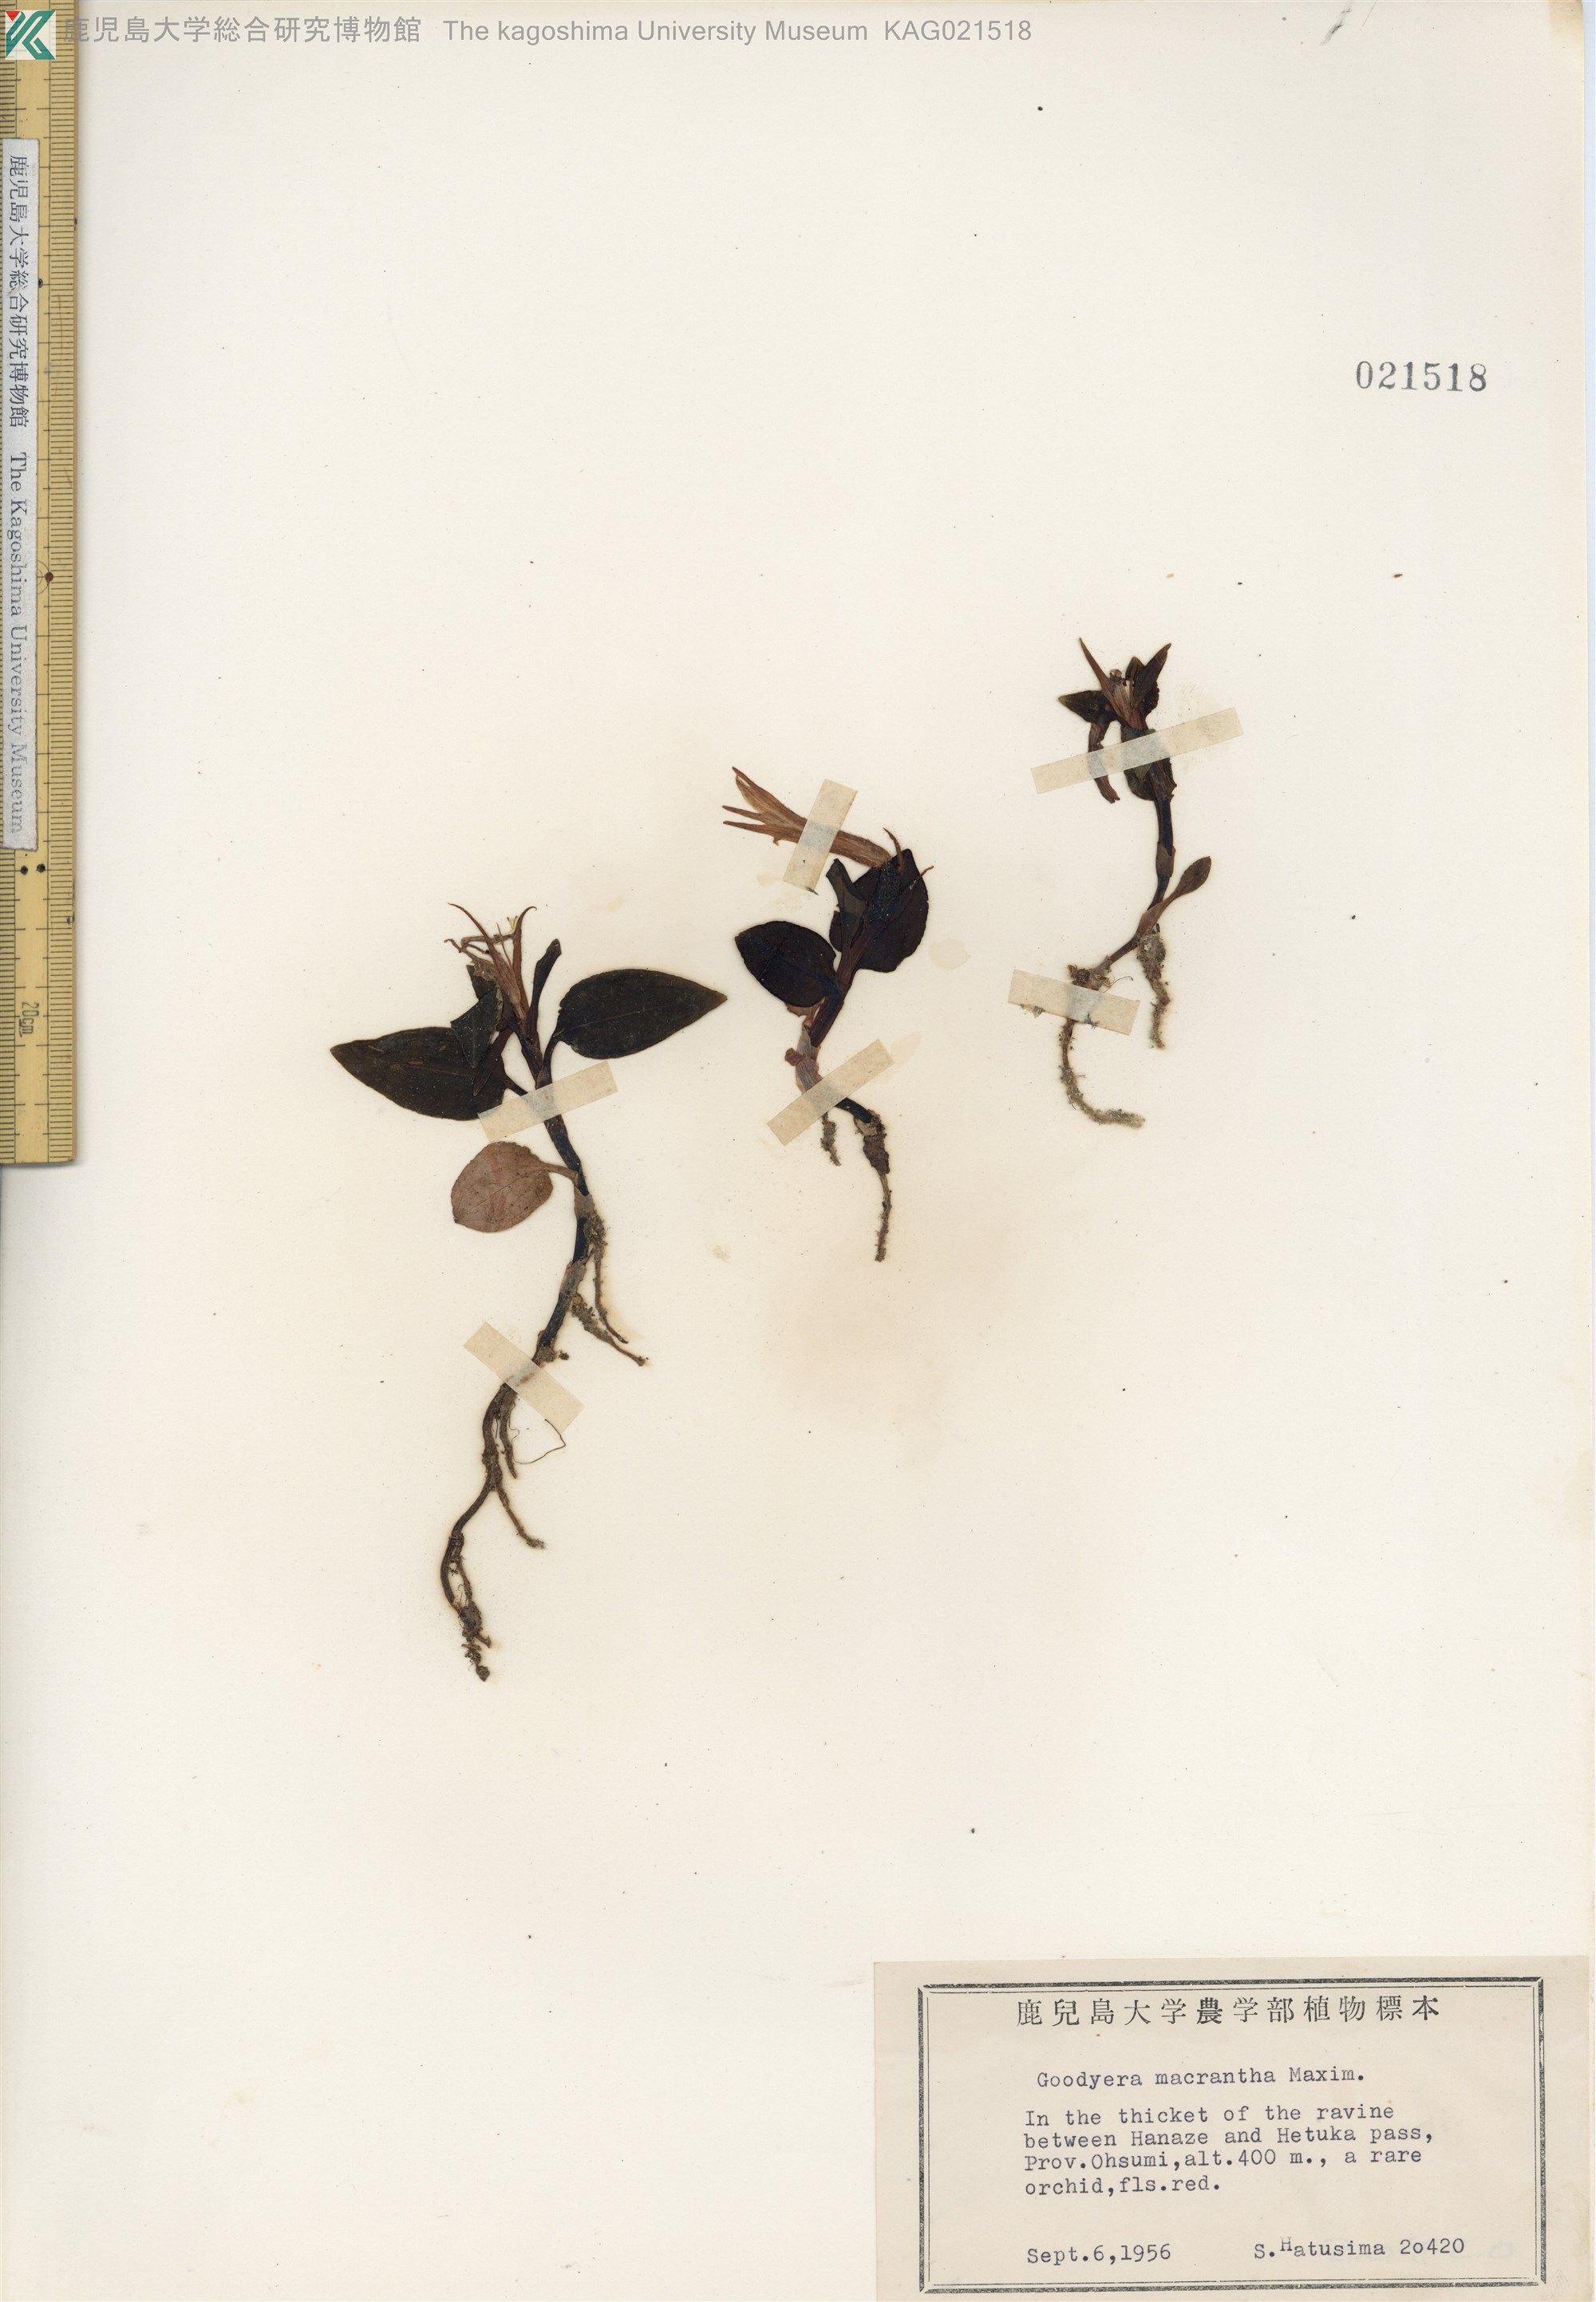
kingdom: Plantae
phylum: Tracheophyta
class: Liliopsida
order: Asparagales
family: Orchidaceae
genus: Goodyera
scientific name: Goodyera biflora
